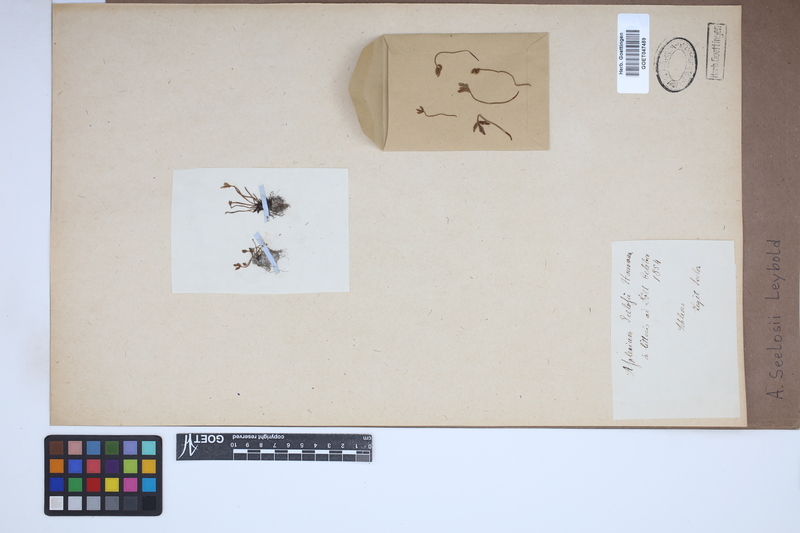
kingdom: Plantae
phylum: Tracheophyta
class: Polypodiopsida
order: Polypodiales
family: Aspleniaceae
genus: Asplenium
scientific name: Asplenium seelosii
